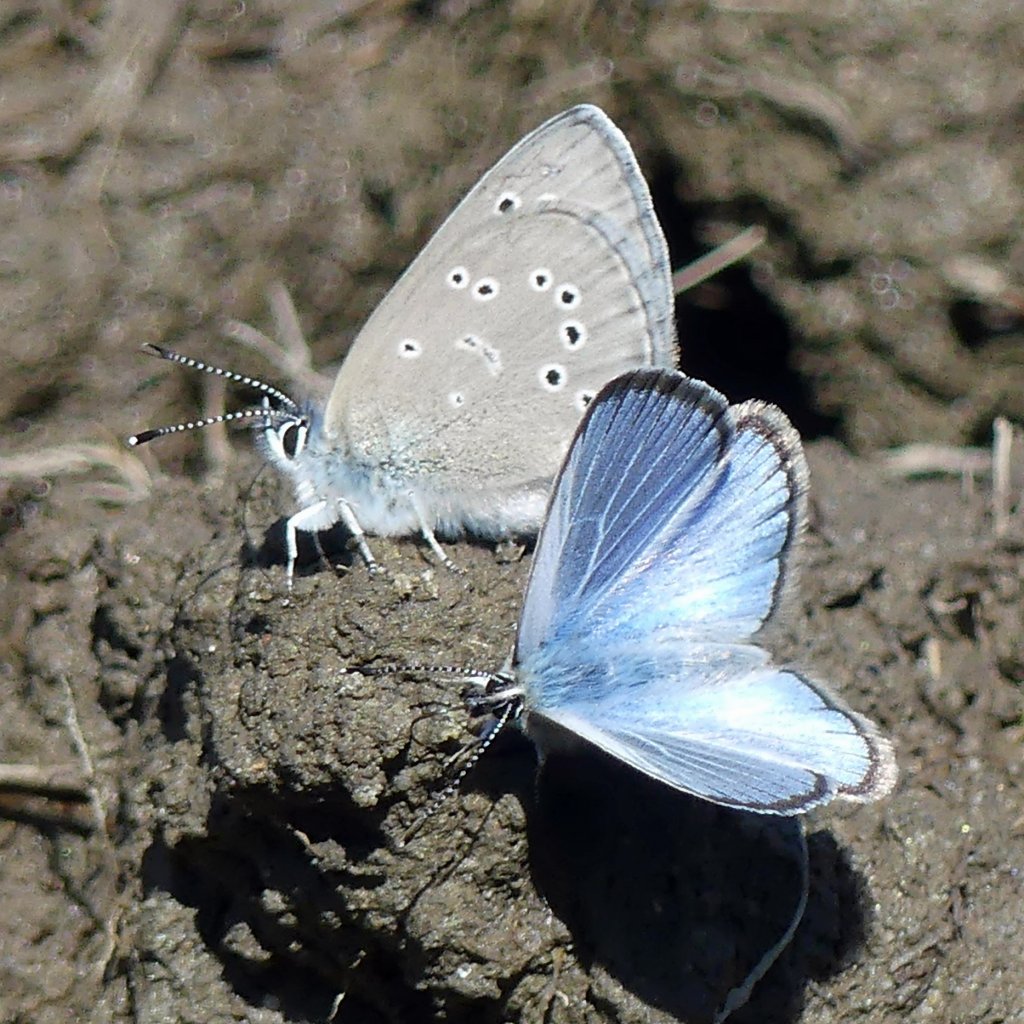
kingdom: Animalia
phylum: Arthropoda
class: Insecta
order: Lepidoptera
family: Lycaenidae
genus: Glaucopsyche
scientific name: Glaucopsyche lygdamus
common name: Silvery Blue
